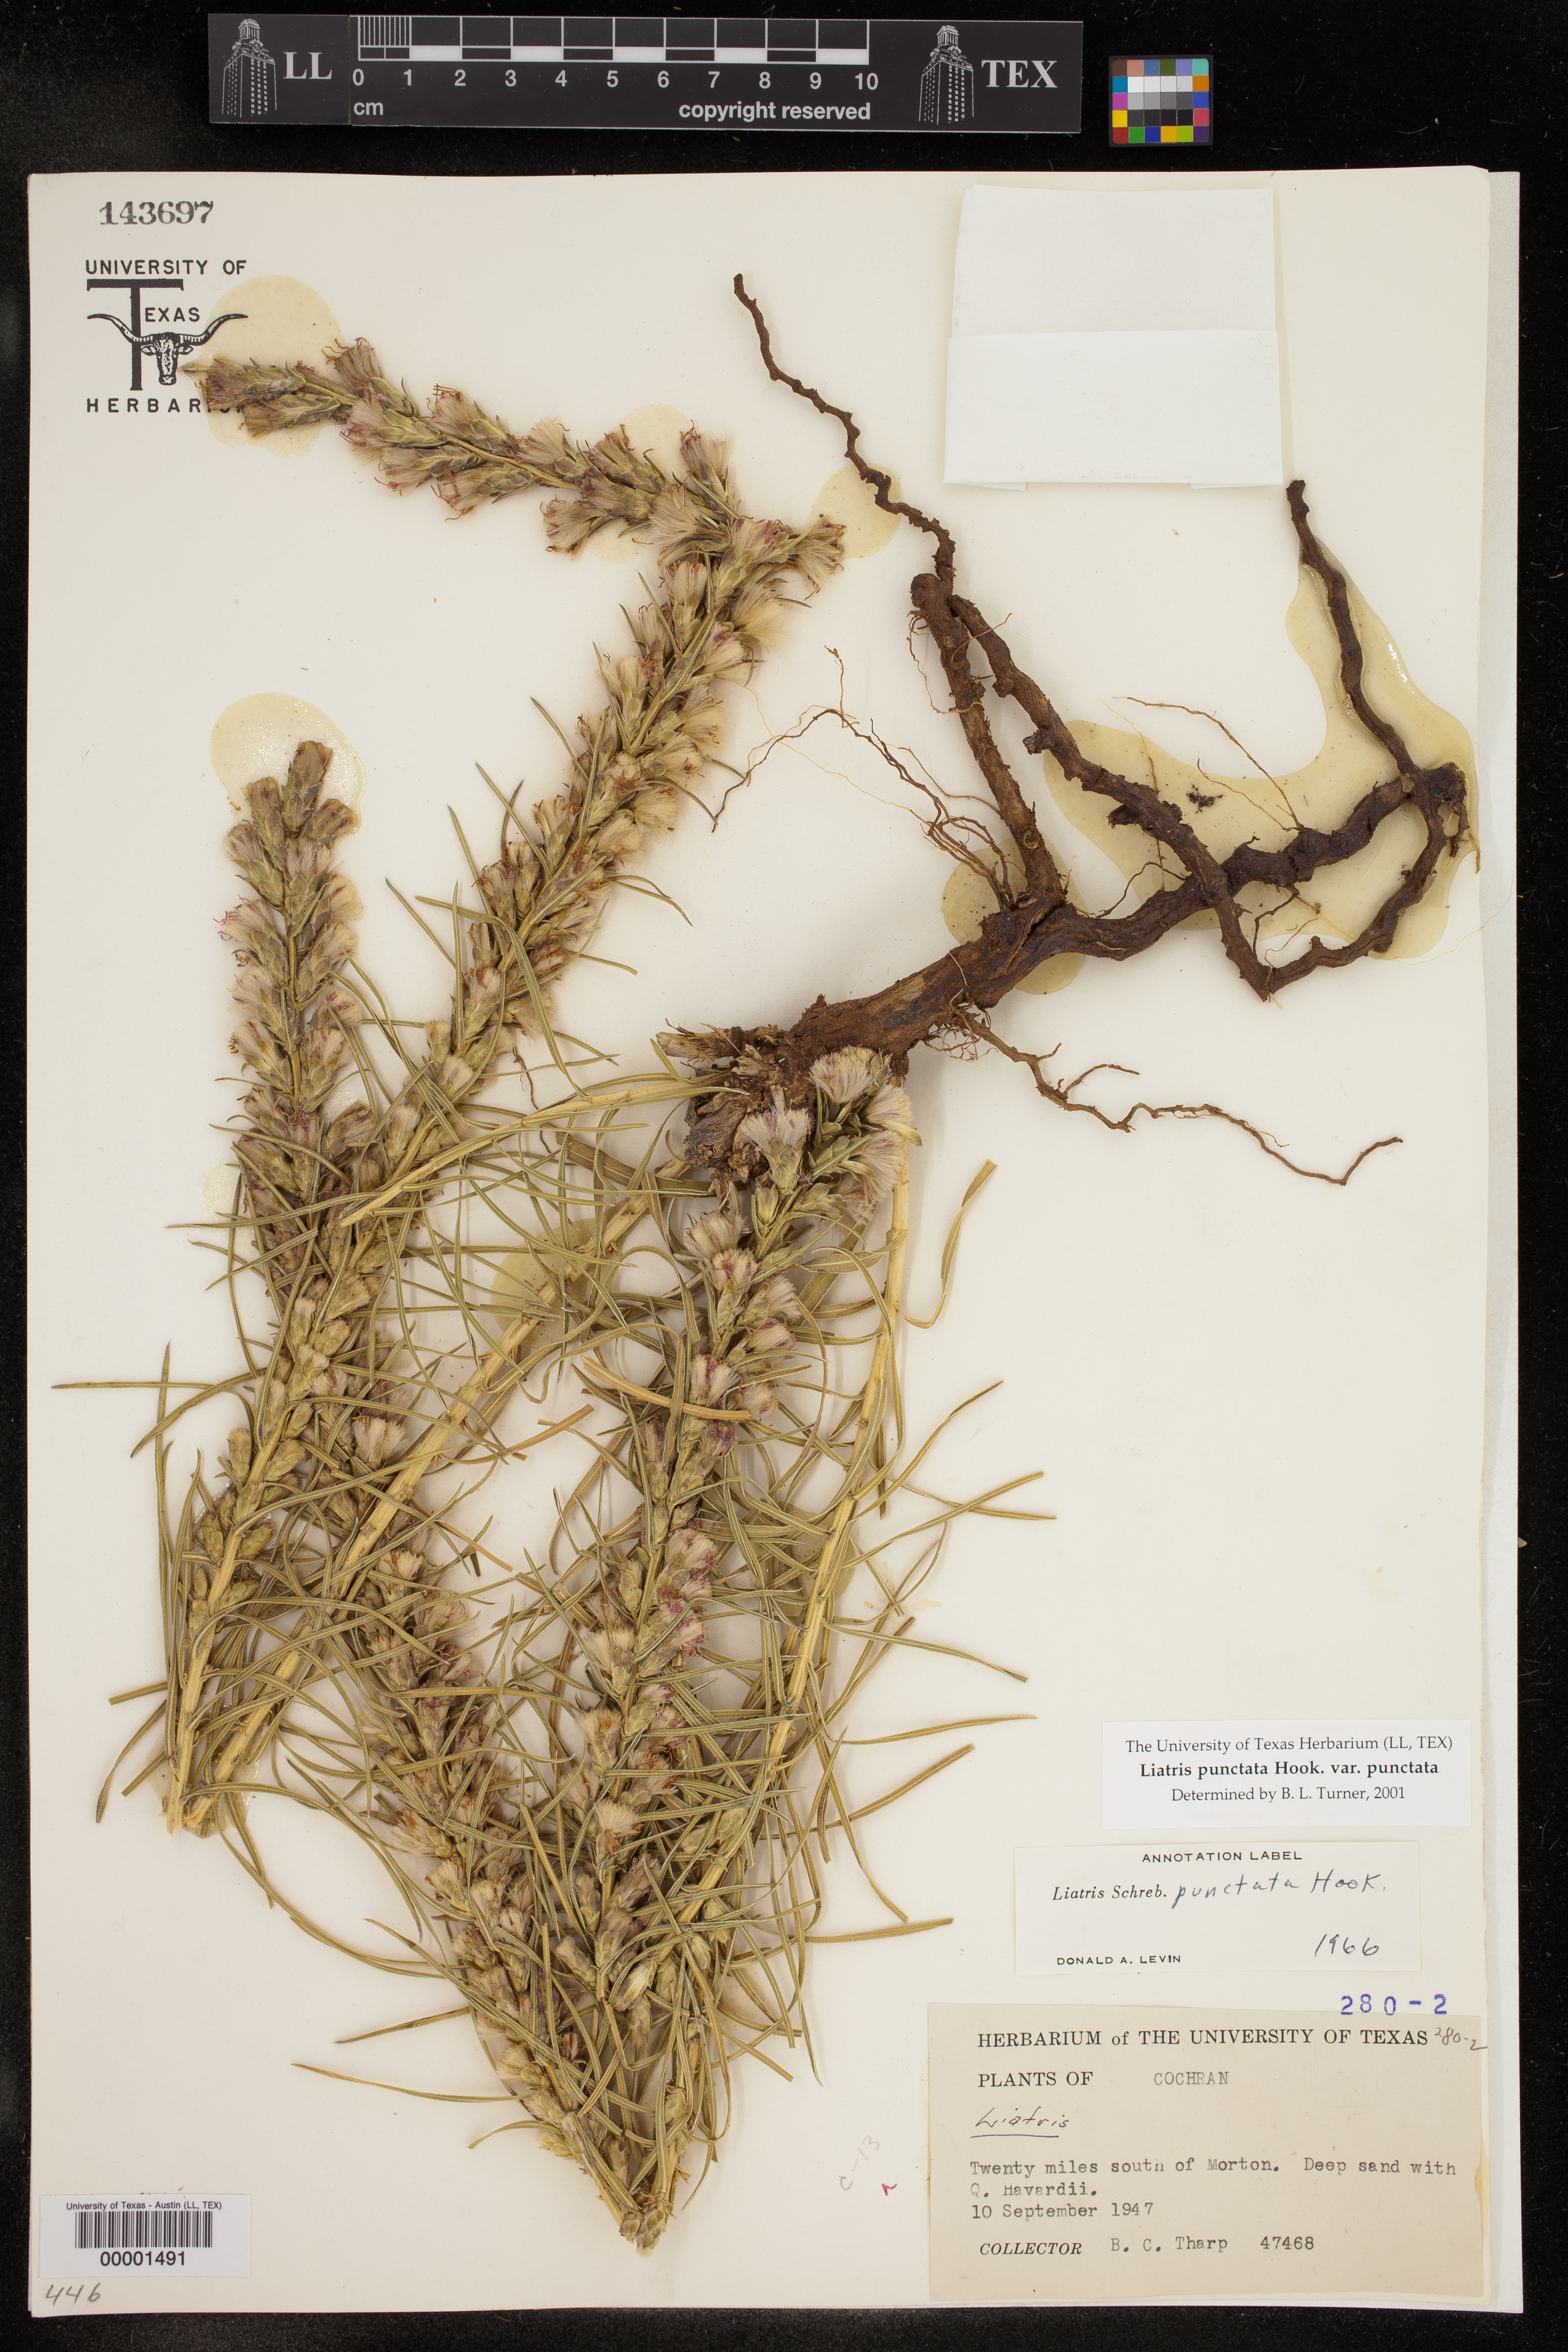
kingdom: Plantae
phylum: Tracheophyta
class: Magnoliopsida
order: Asterales
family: Asteraceae
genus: Liatris
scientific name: Liatris punctata
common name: Dotted gayfeather
